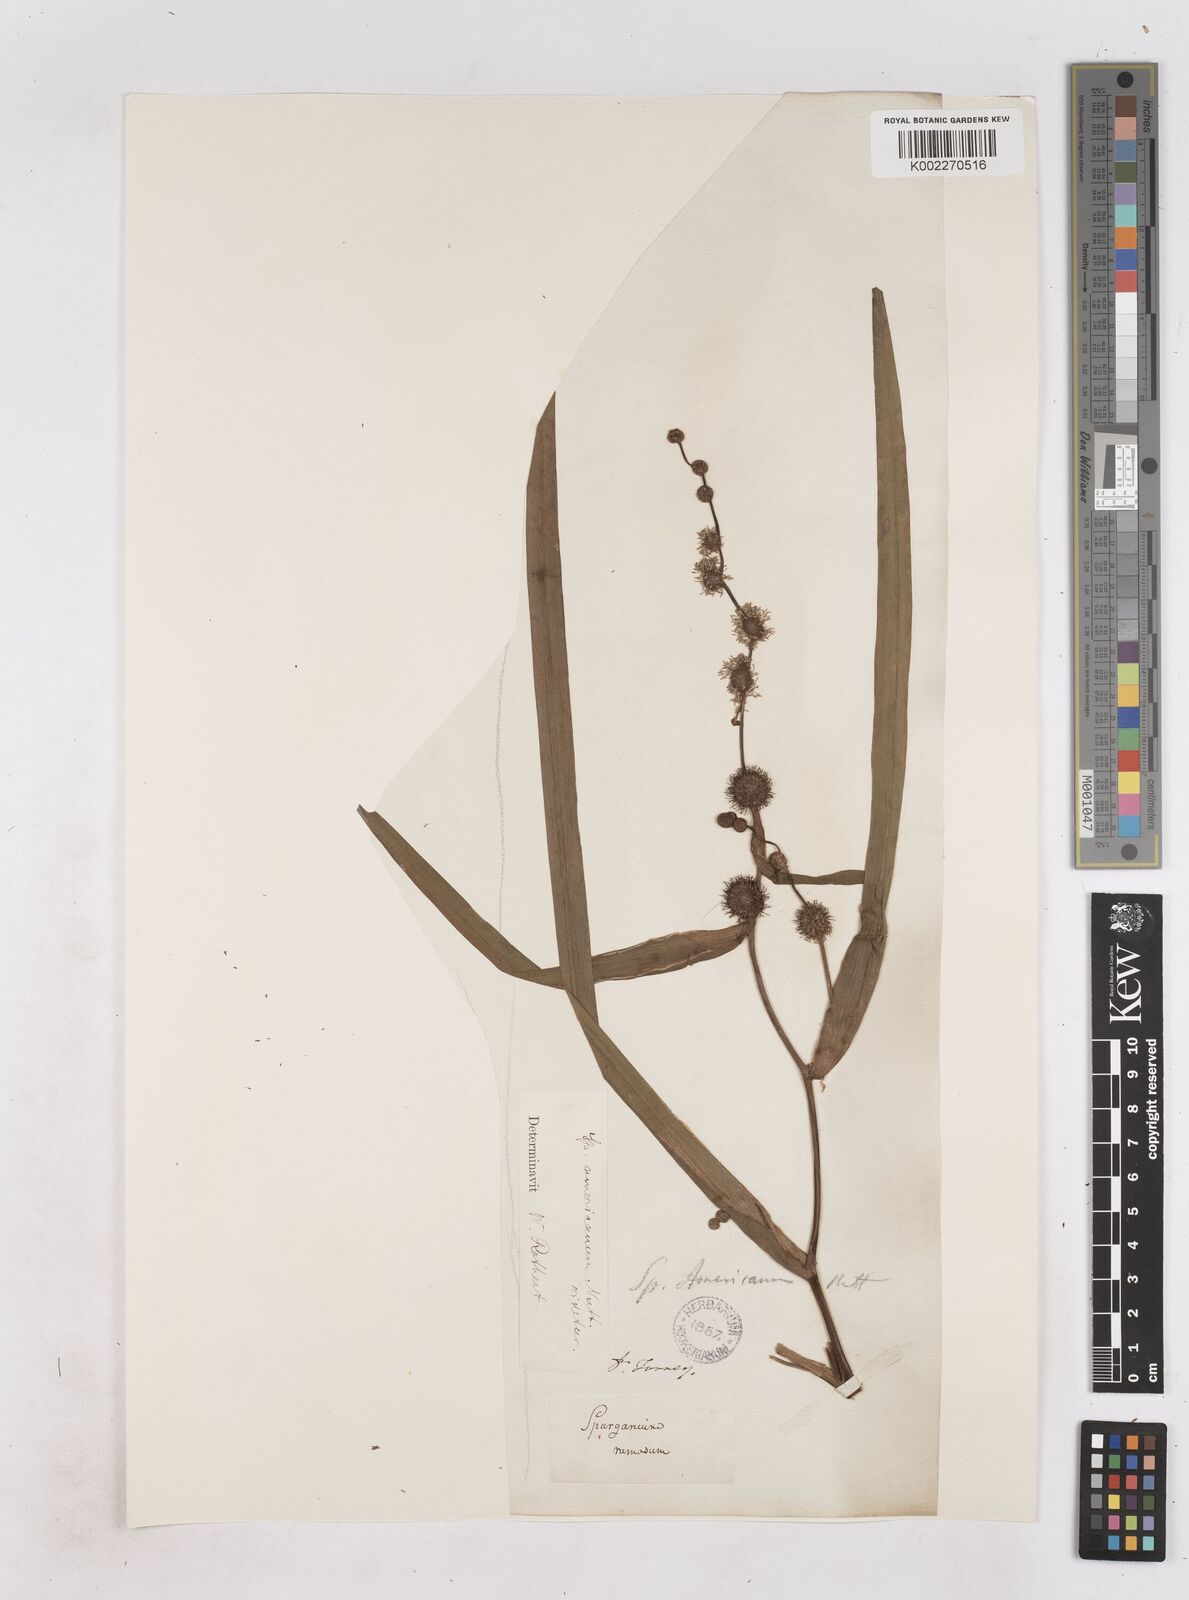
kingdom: Plantae
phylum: Tracheophyta
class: Liliopsida
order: Poales
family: Typhaceae
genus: Sparganium
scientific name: Sparganium americanum
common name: American burreed
